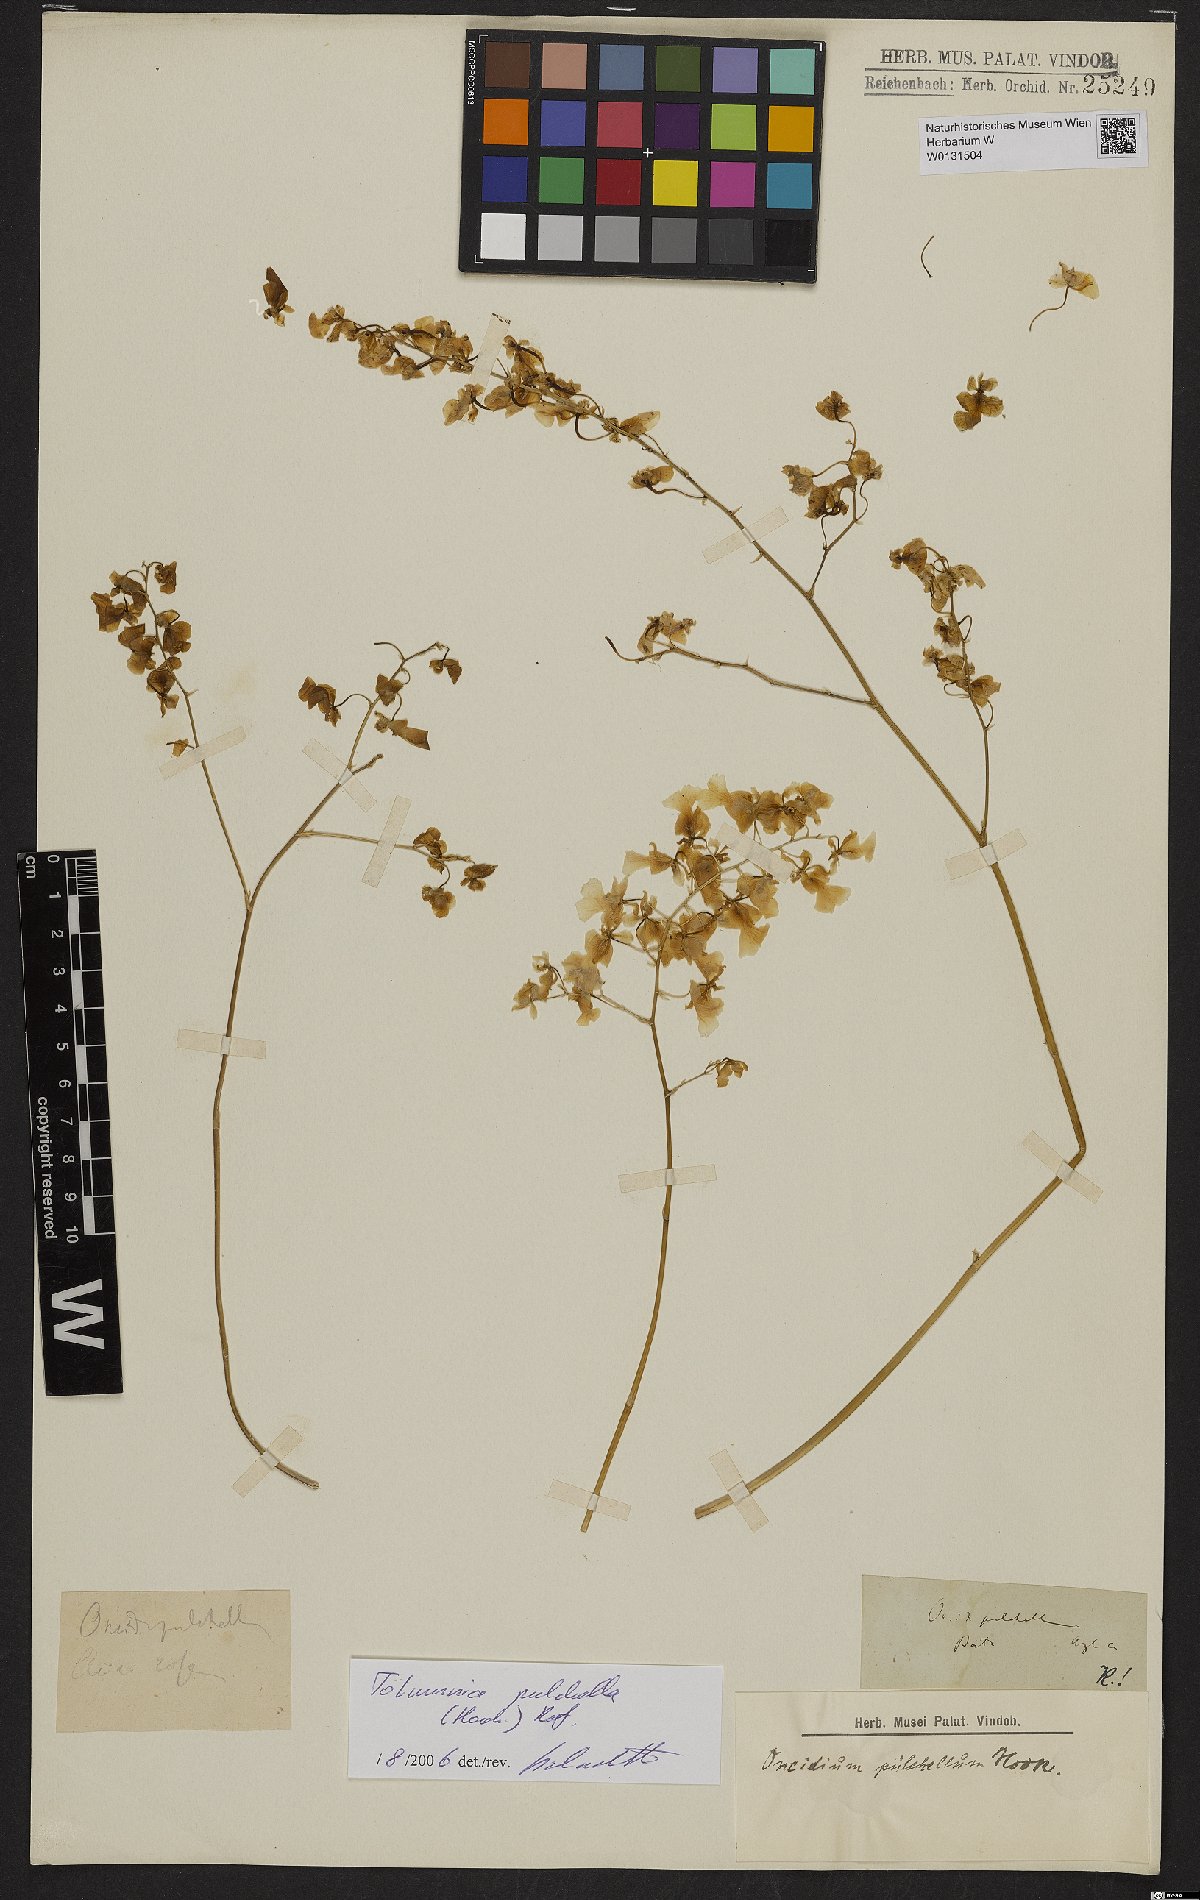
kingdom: Plantae
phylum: Tracheophyta
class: Liliopsida
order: Asparagales
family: Orchidaceae
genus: Tolumnia
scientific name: Tolumnia pulchella
